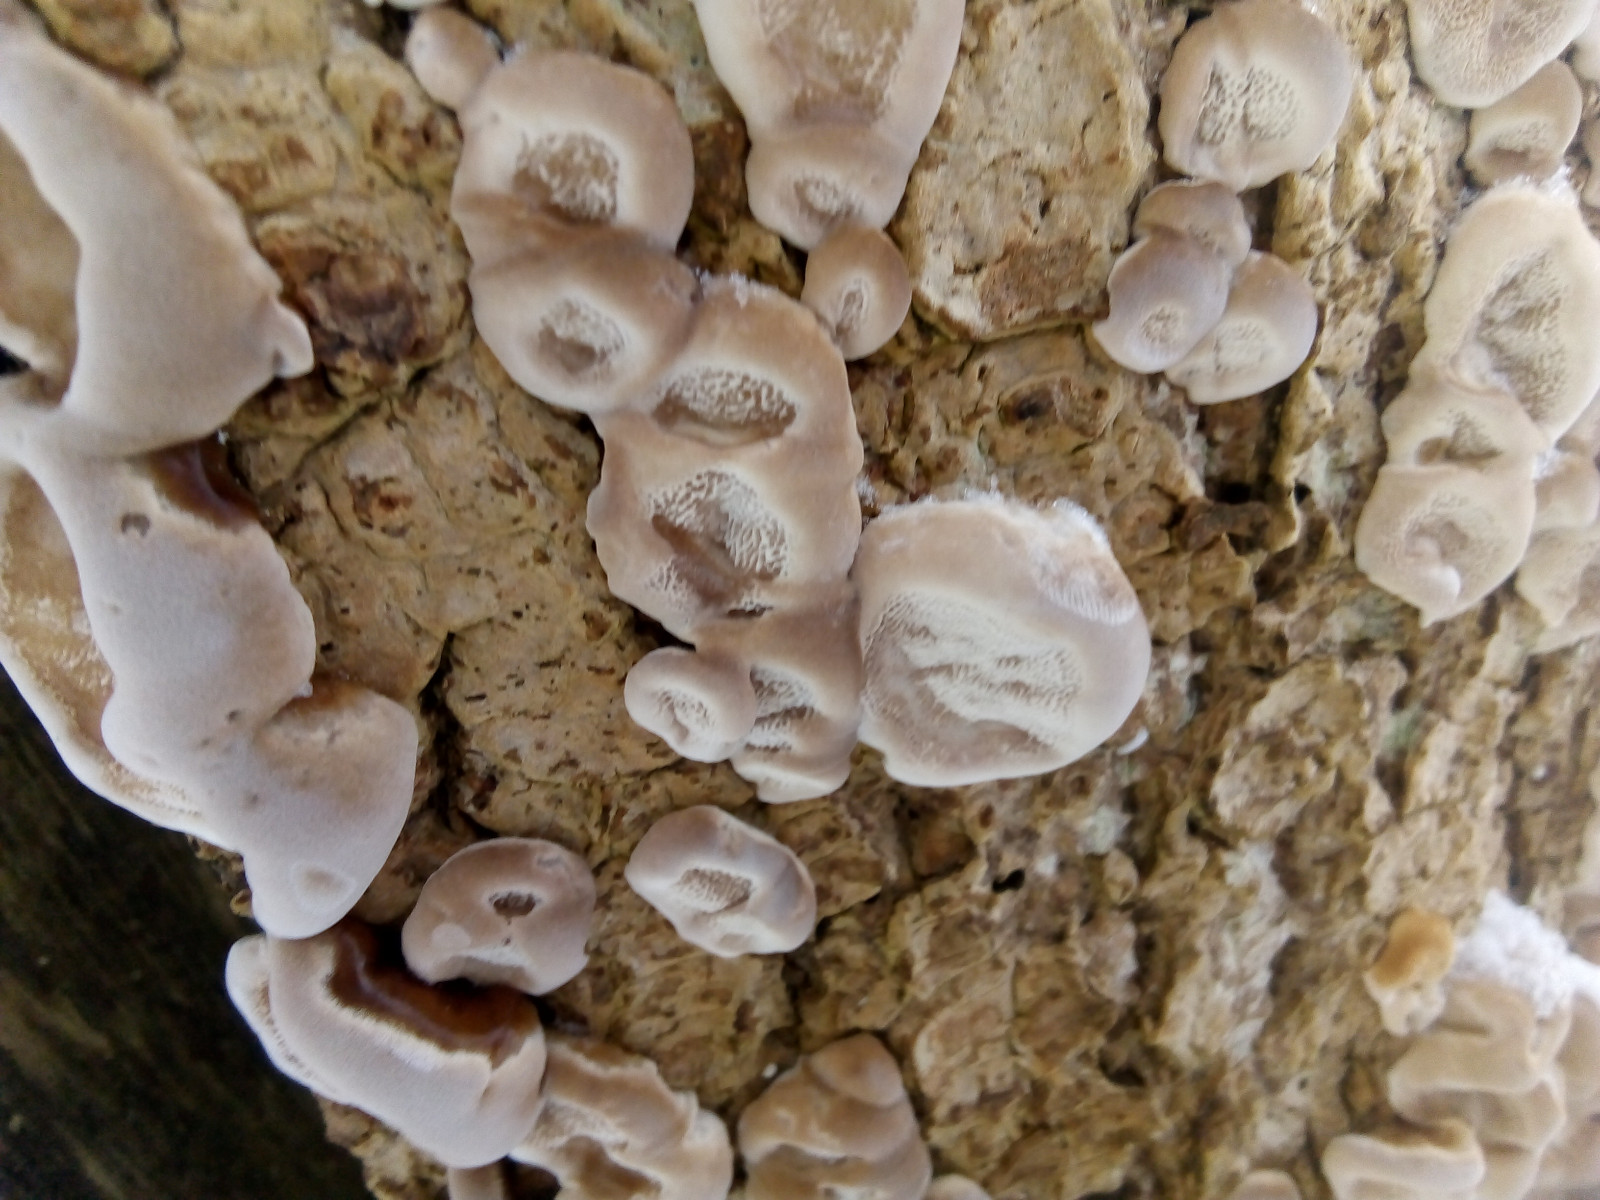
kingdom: Fungi
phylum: Basidiomycota
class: Agaricomycetes
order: Polyporales
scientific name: Polyporales
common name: poresvampordenen
